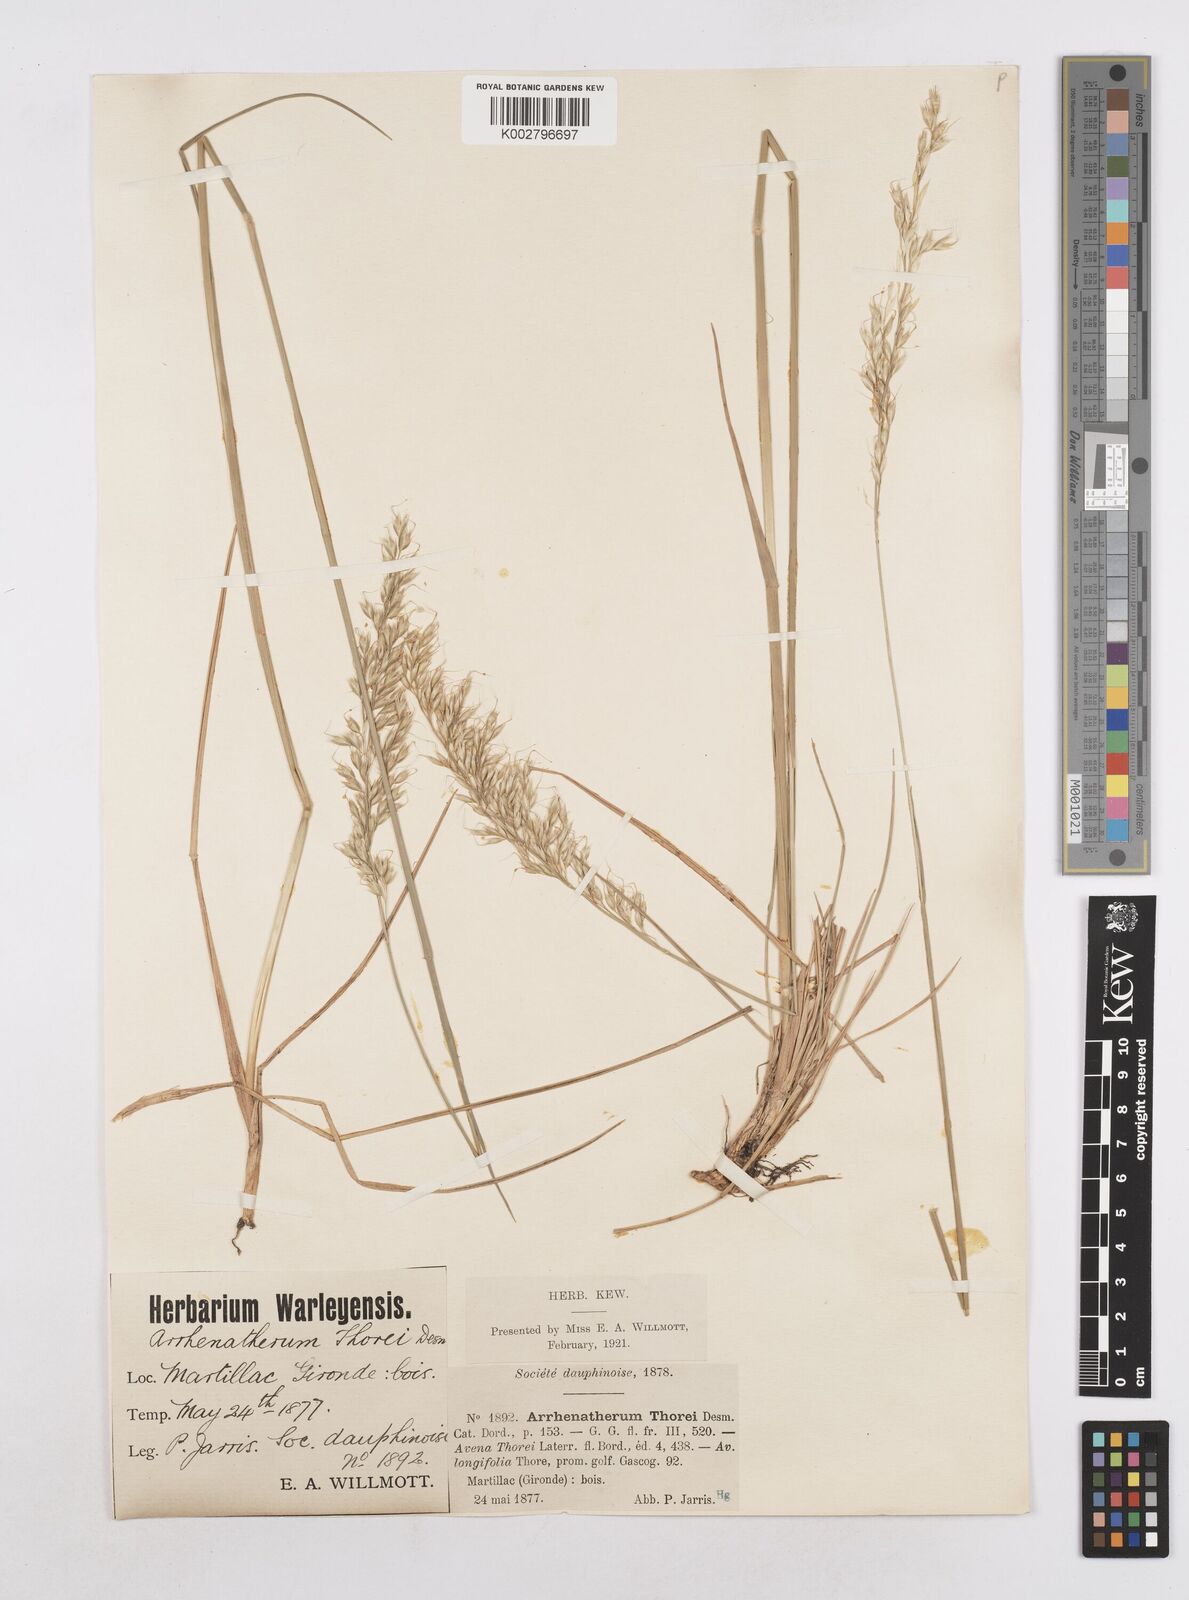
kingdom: Plantae
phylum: Tracheophyta
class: Liliopsida
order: Poales
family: Poaceae
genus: Arrhenatherum
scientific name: Arrhenatherum longifolium
